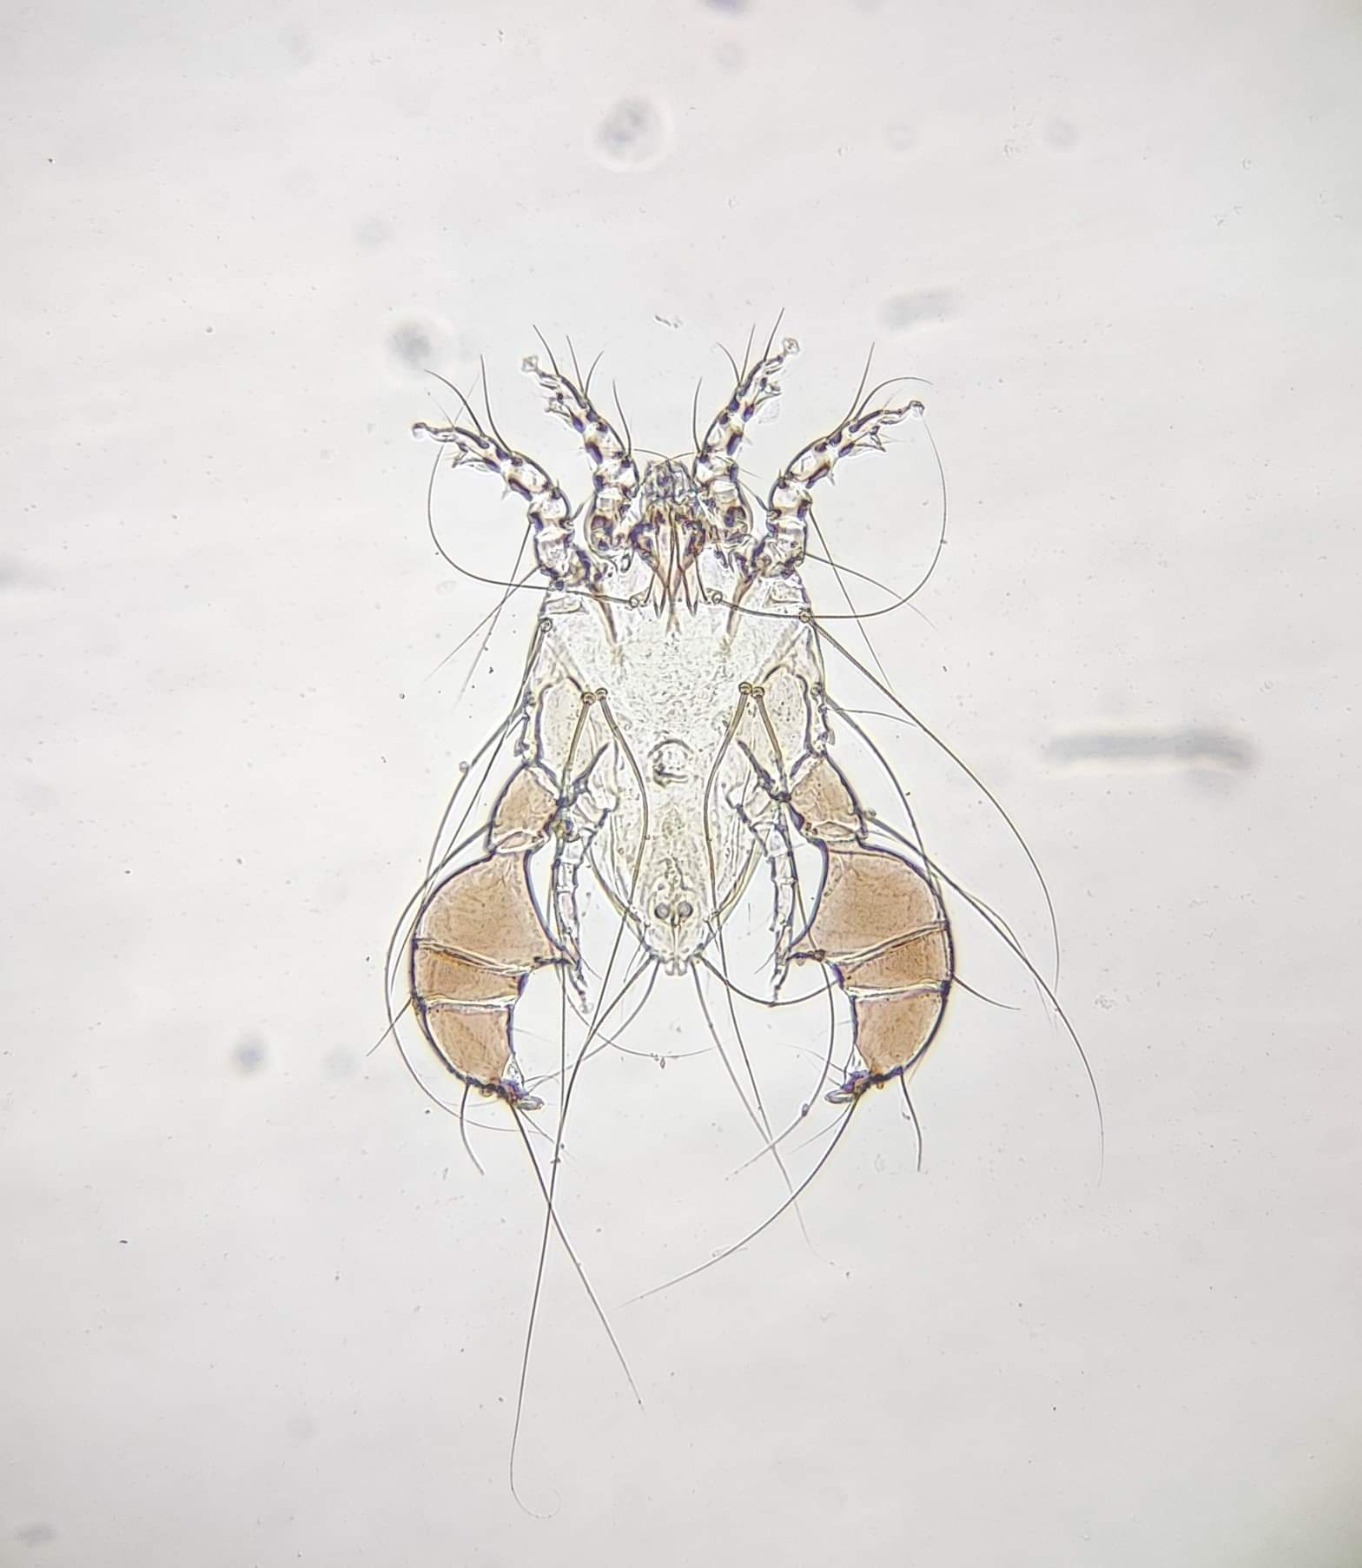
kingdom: Animalia
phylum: Arthropoda
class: Arachnida
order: Sarcoptiformes
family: Analgidae
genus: Analges
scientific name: Analges nitzschi
